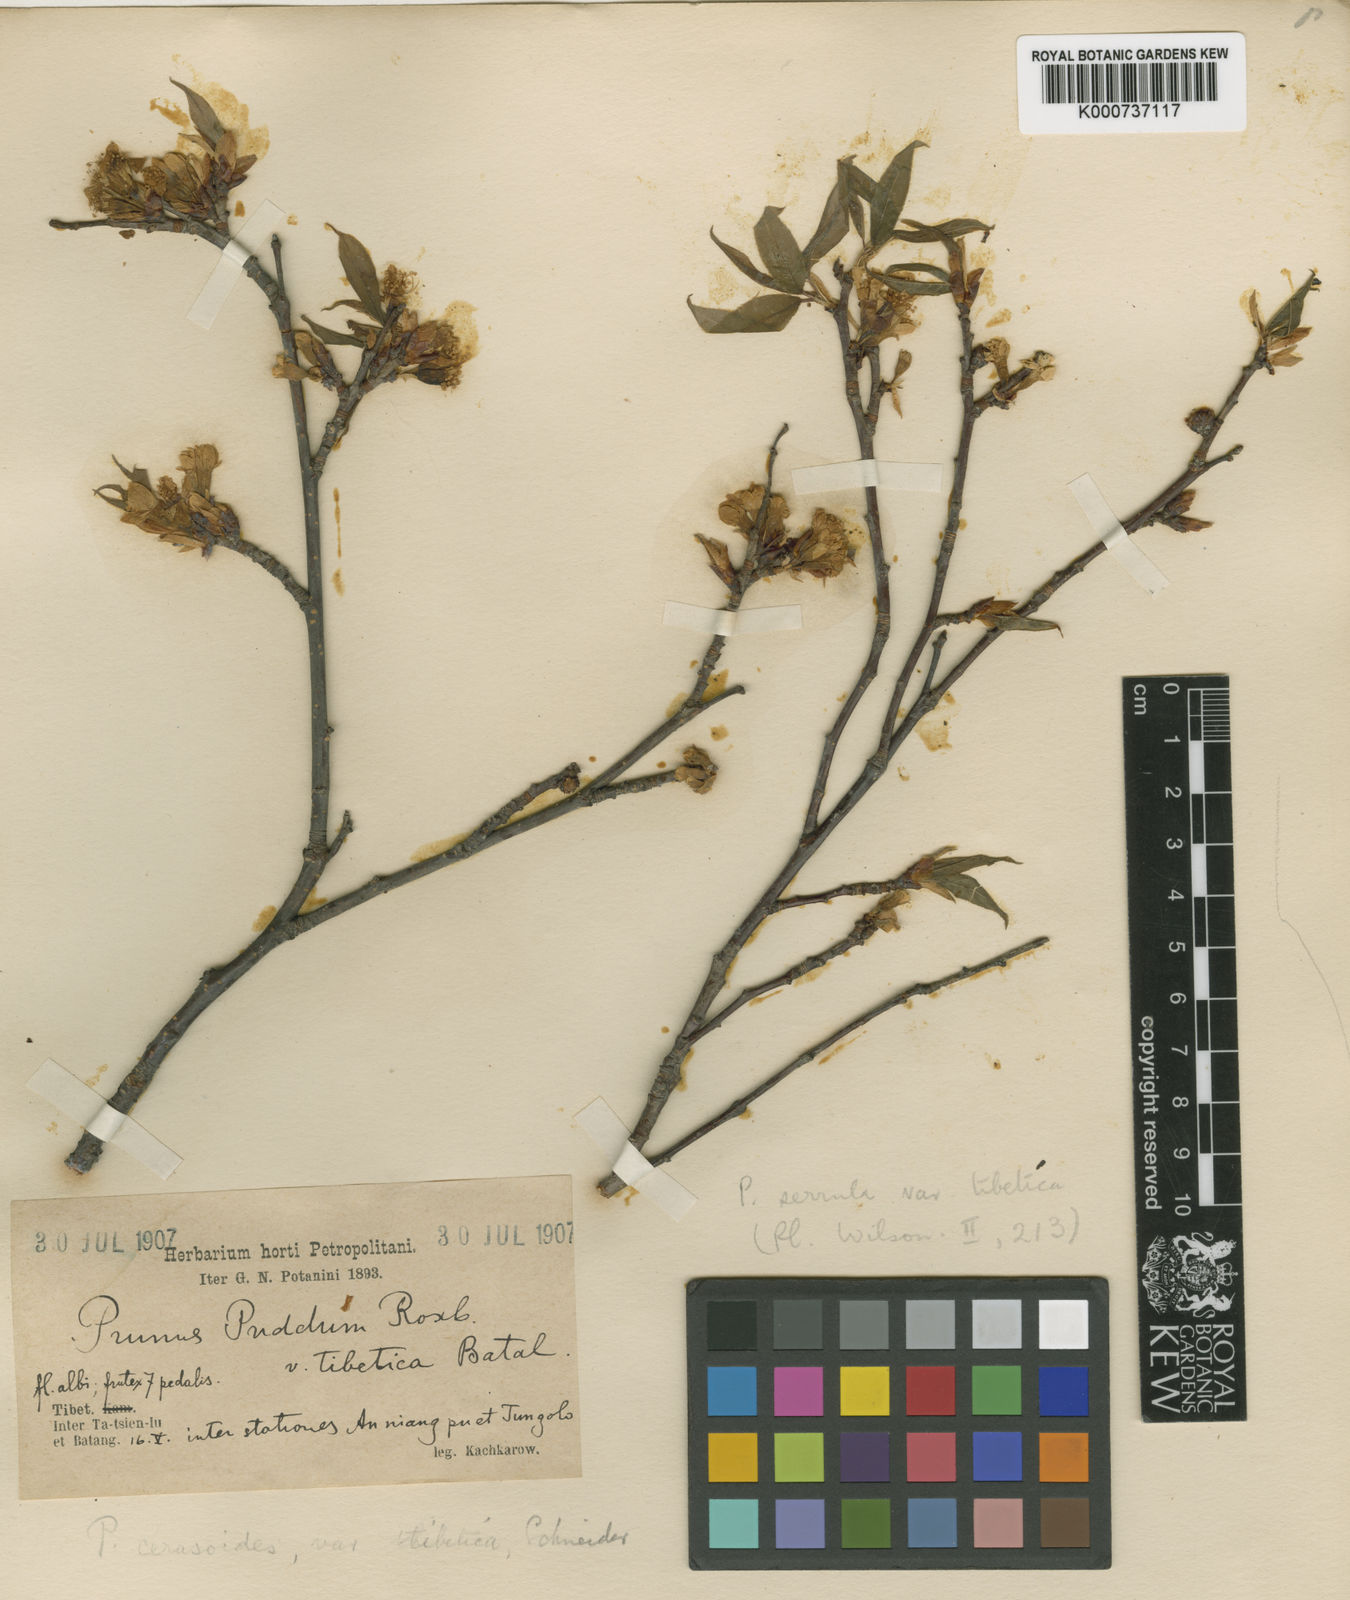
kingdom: Plantae
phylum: Tracheophyta
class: Magnoliopsida
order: Rosales
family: Rosaceae
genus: Prunus
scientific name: Prunus serrula
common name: Birchbark cherry
